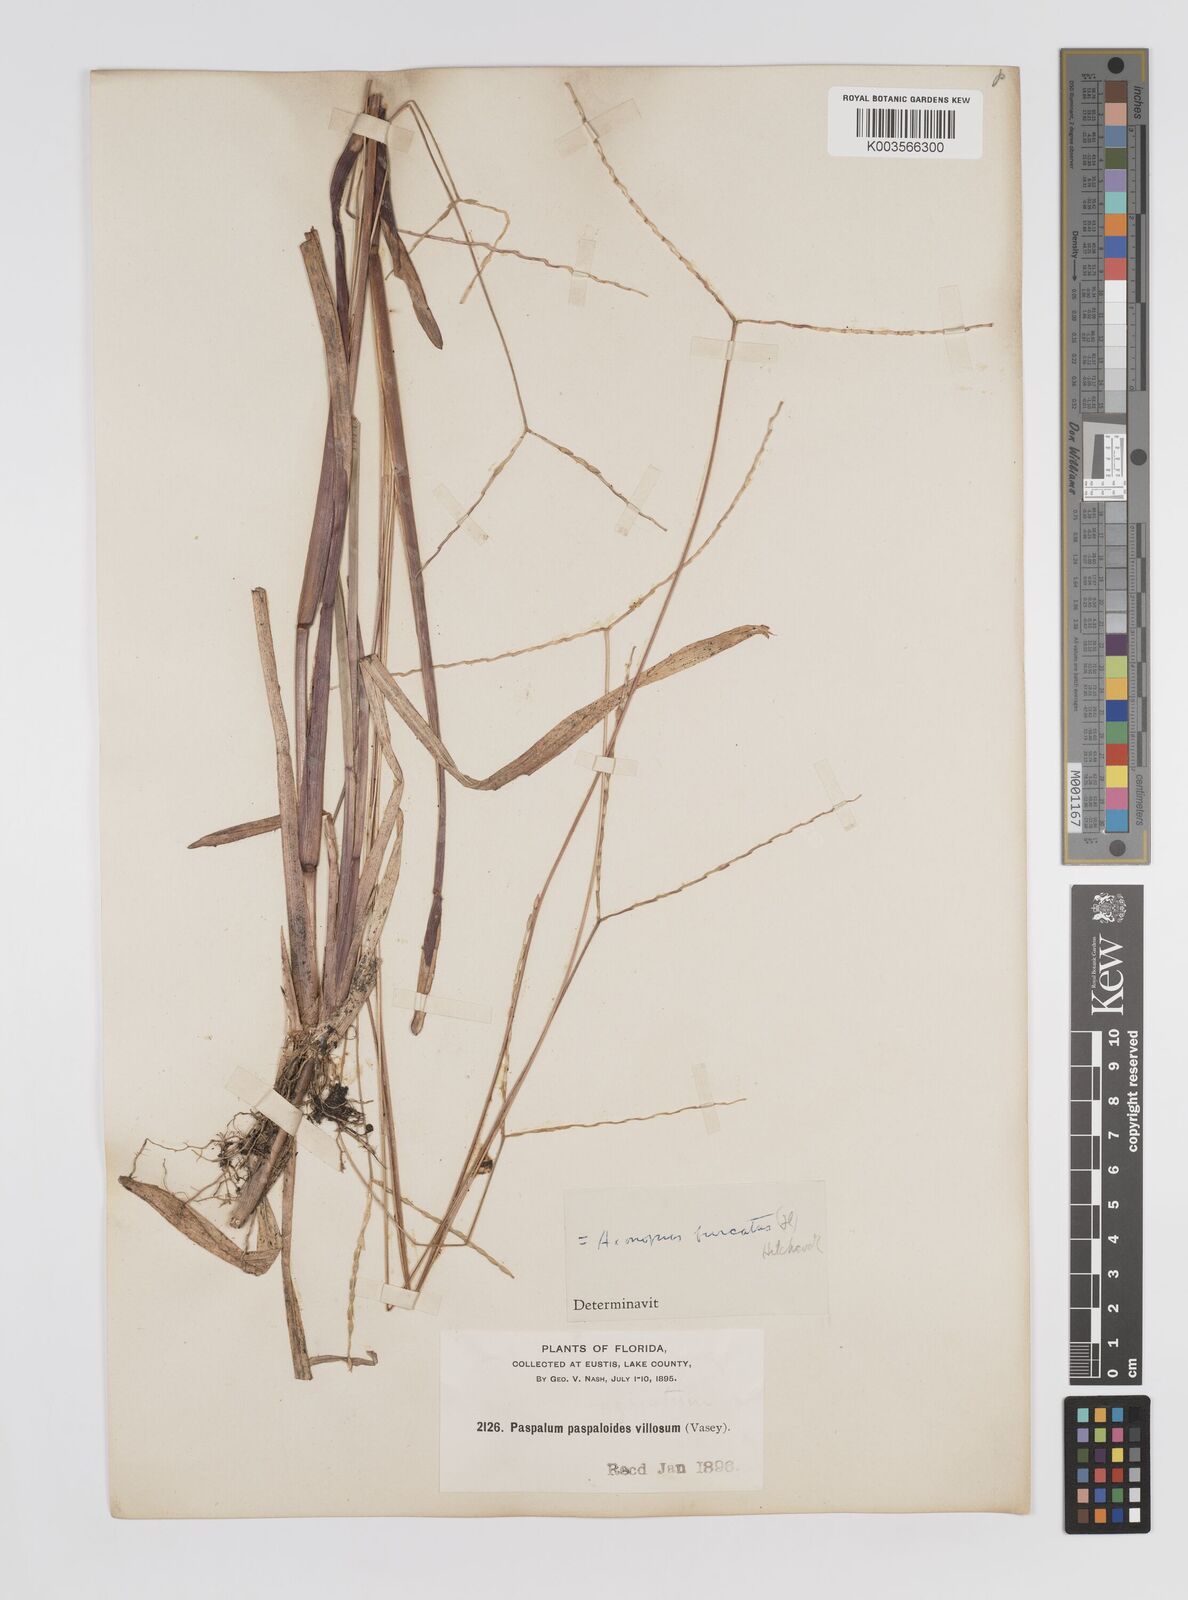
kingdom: Plantae
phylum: Tracheophyta
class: Liliopsida
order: Poales
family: Poaceae
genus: Axonopus
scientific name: Axonopus furcatus
